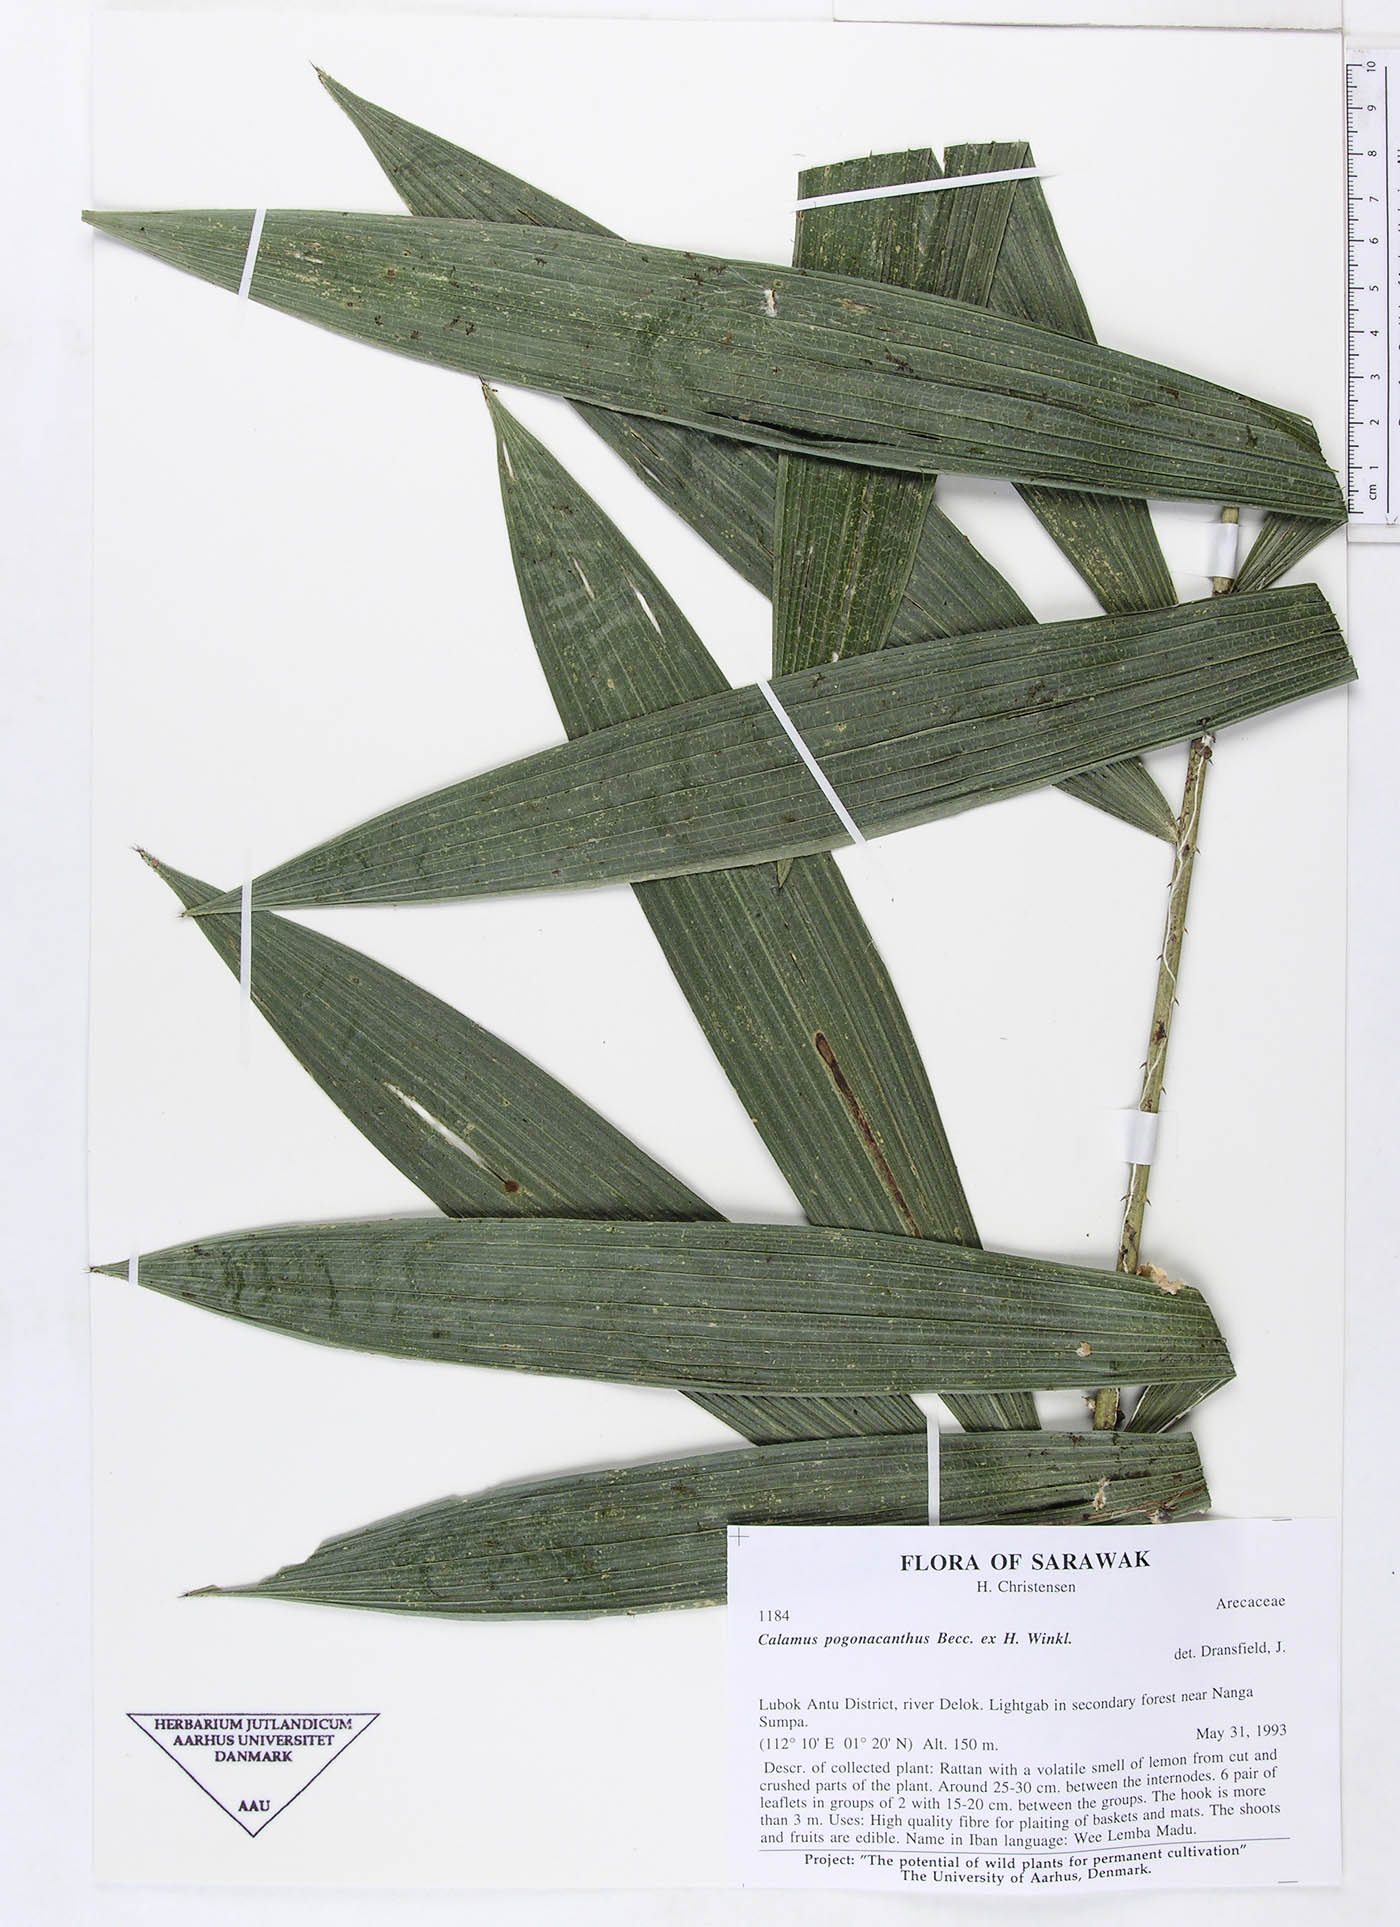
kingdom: Plantae
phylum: Tracheophyta
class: Liliopsida
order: Arecales
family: Arecaceae
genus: Calamus
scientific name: Calamus pogonacanthus
